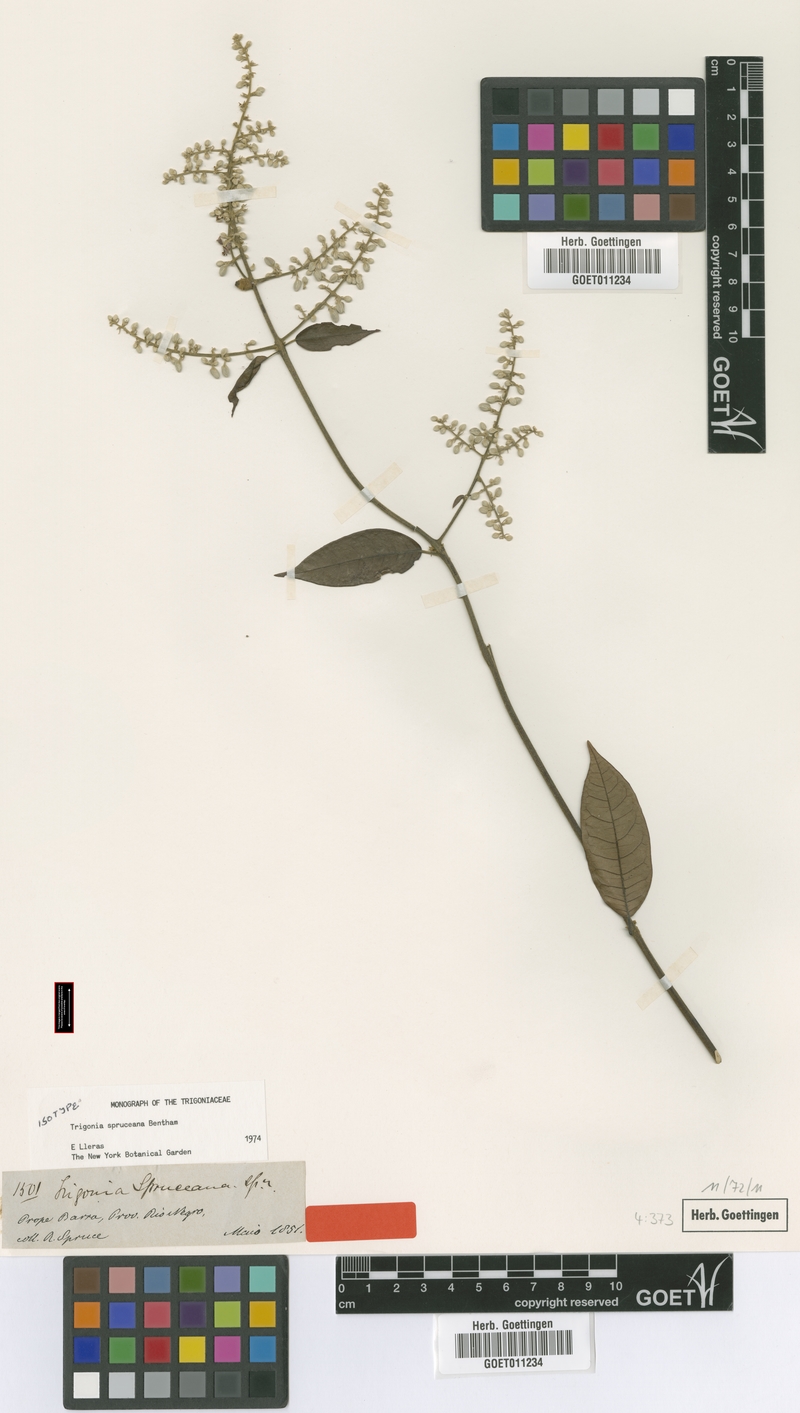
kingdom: Plantae
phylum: Tracheophyta
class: Magnoliopsida
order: Malpighiales
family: Trigoniaceae
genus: Trigonia
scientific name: Trigonia spruceana
